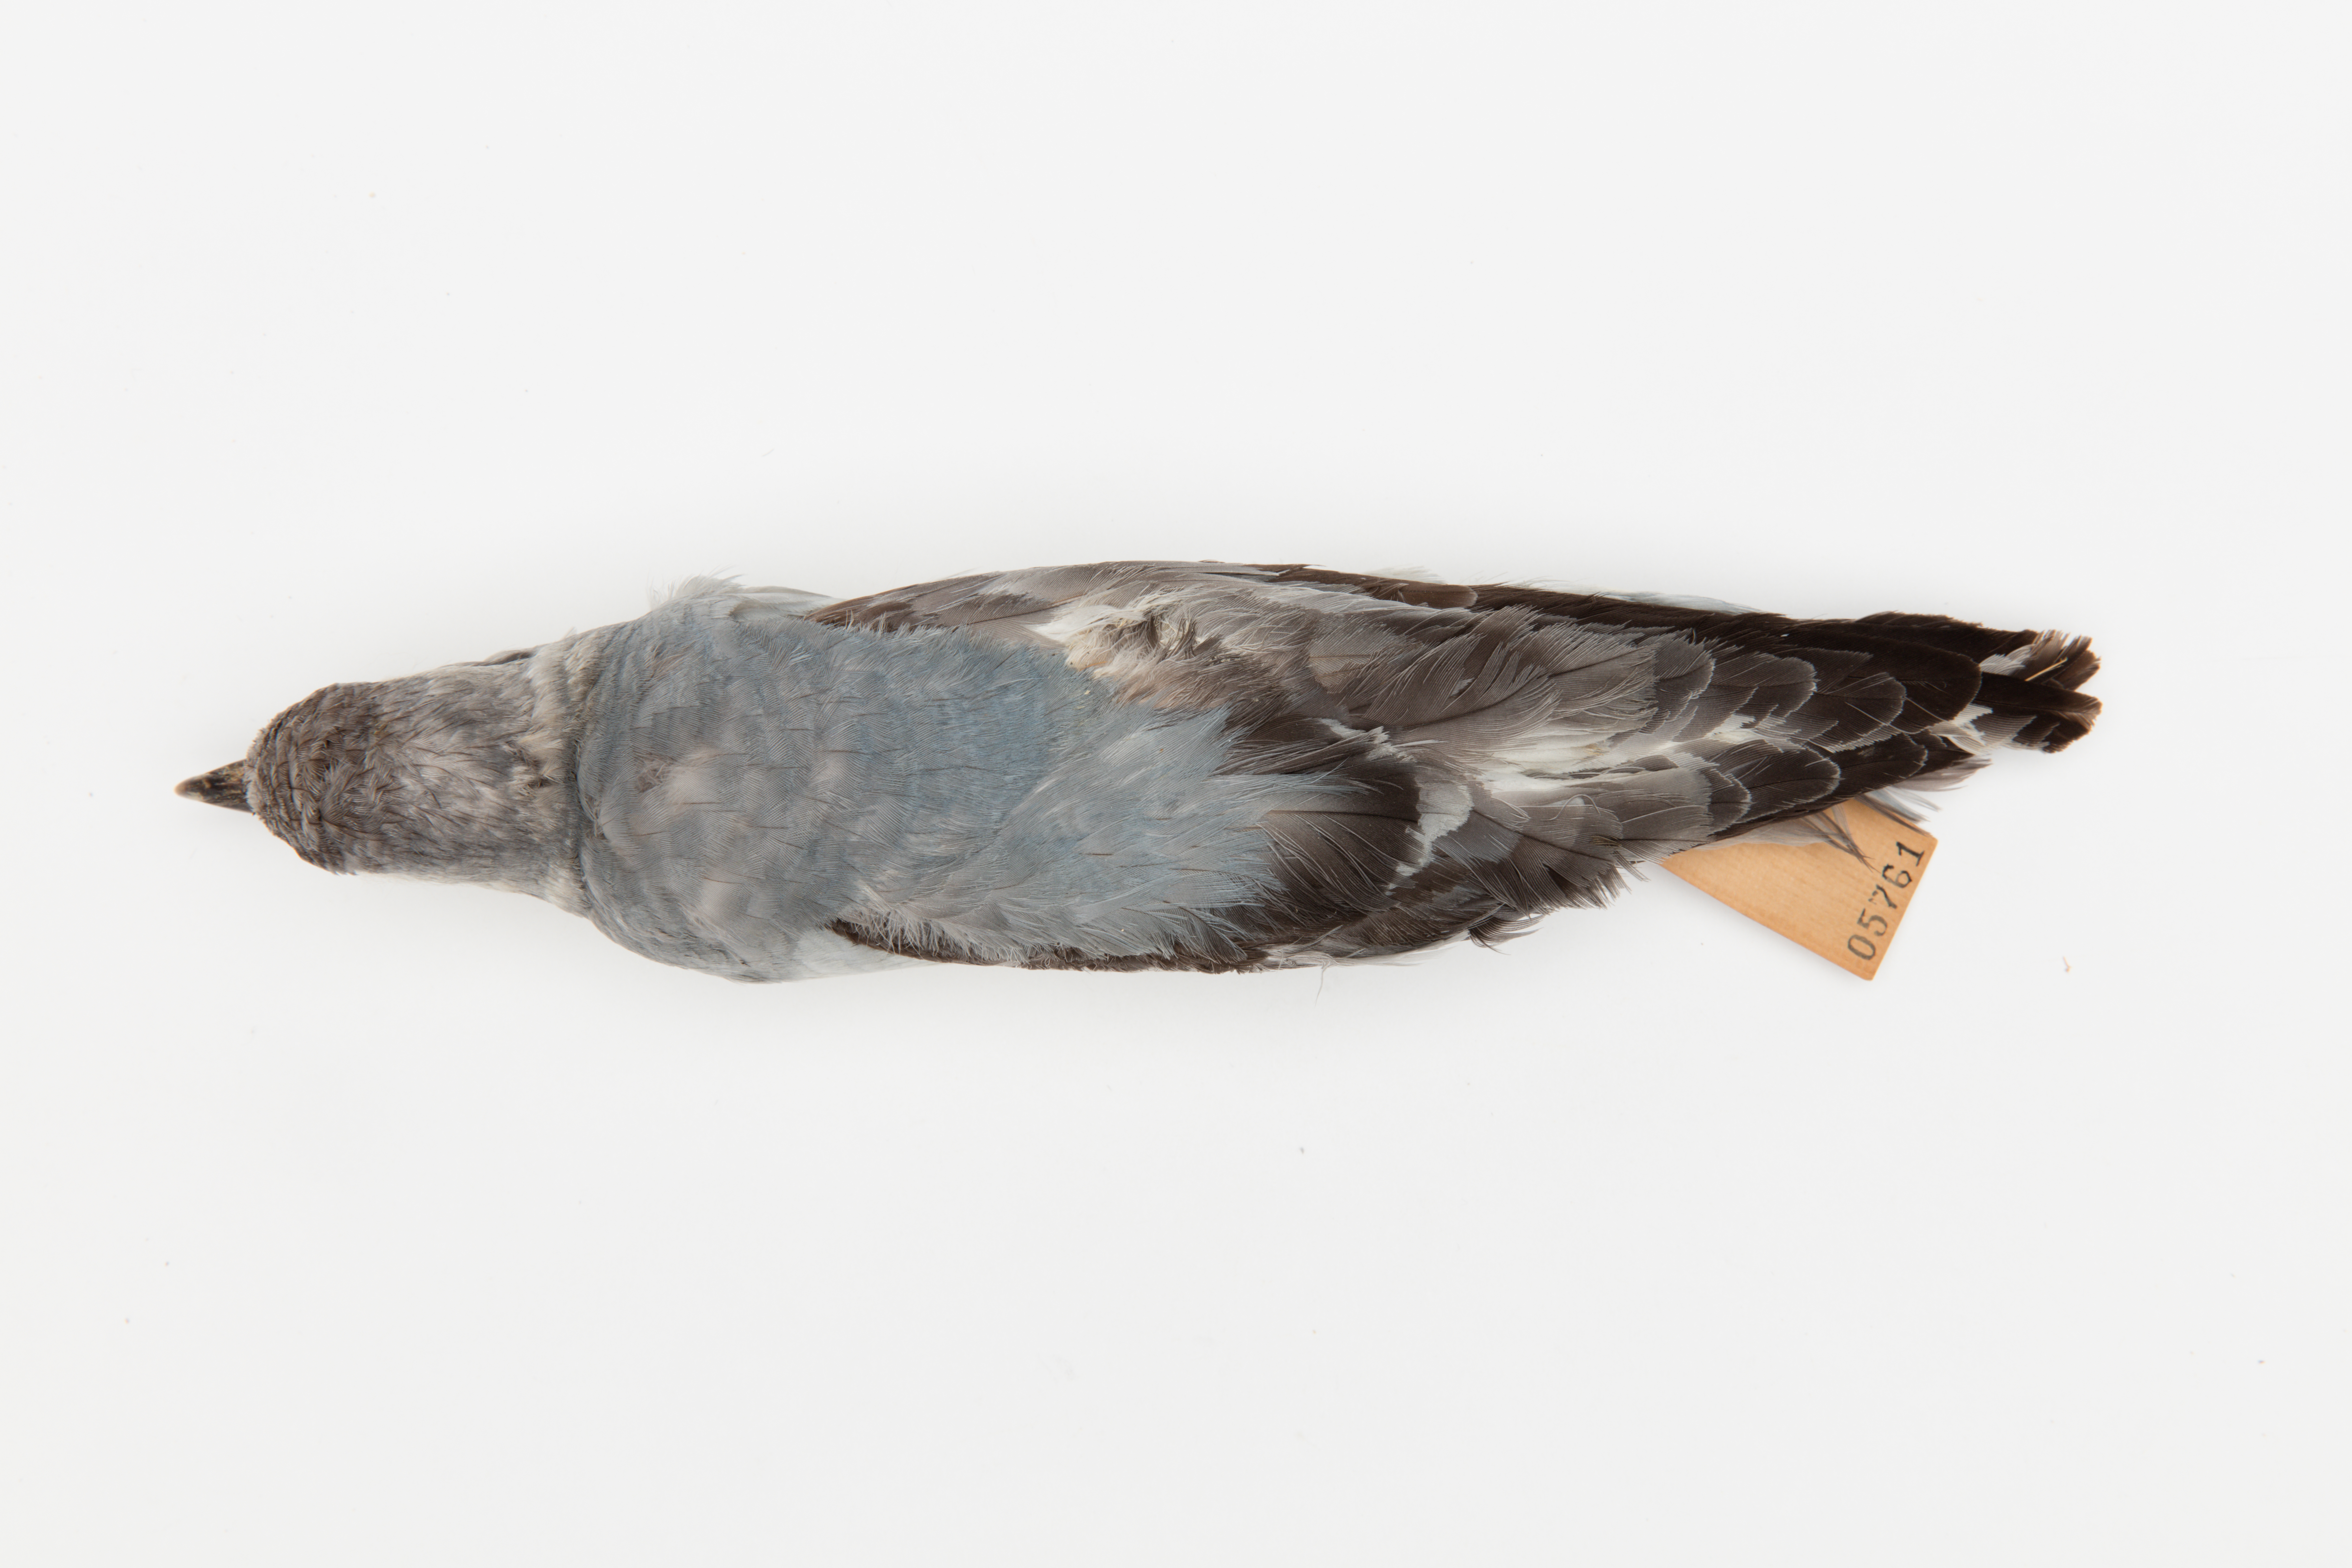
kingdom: Animalia
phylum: Chordata
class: Aves
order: Procellariiformes
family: Procellariidae
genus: Pachyptila
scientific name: Pachyptila turtur
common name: Fairy prion
